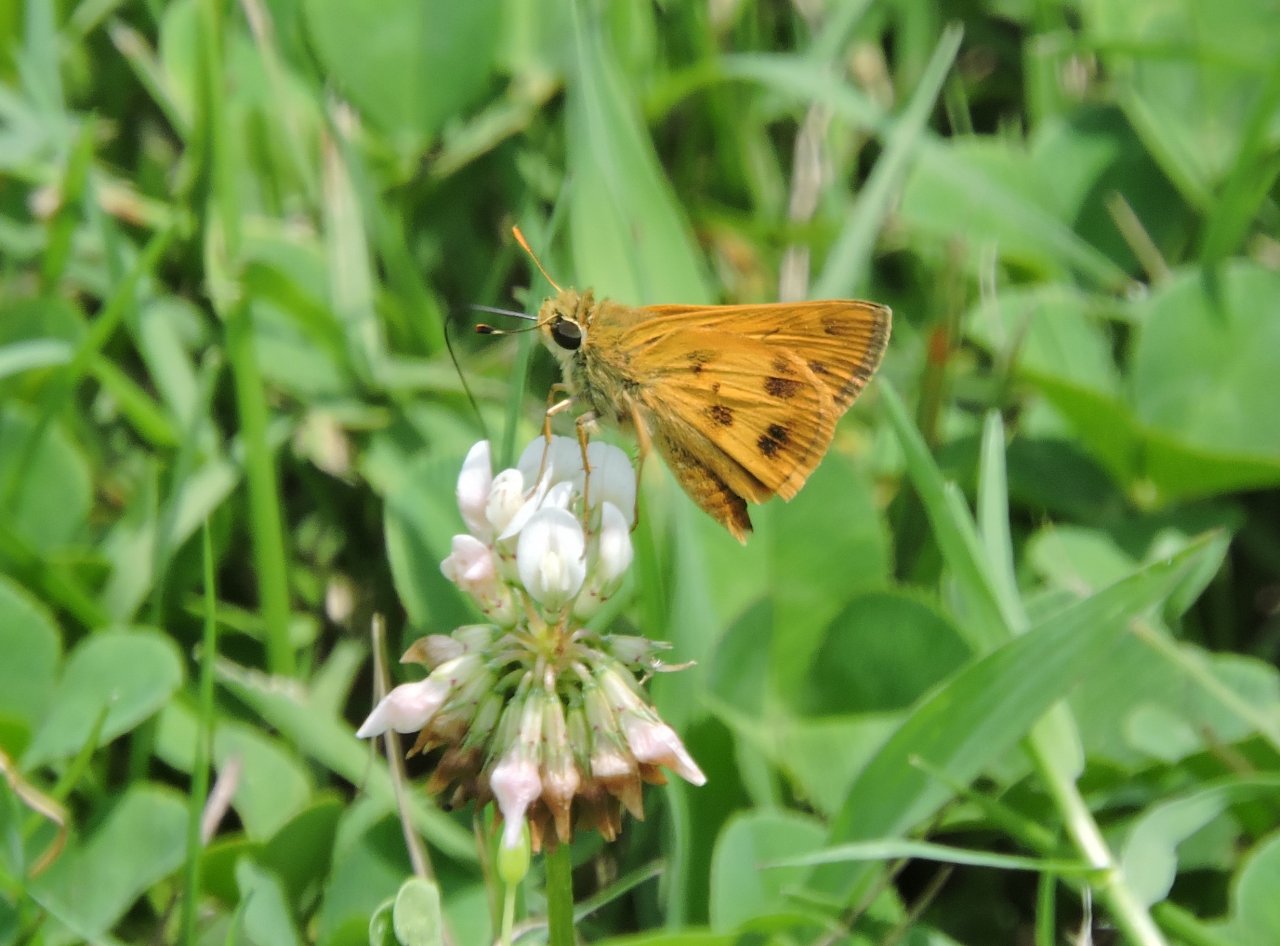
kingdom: Animalia
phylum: Arthropoda
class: Insecta
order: Lepidoptera
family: Hesperiidae
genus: Polites
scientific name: Polites vibex
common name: Whirlabout
